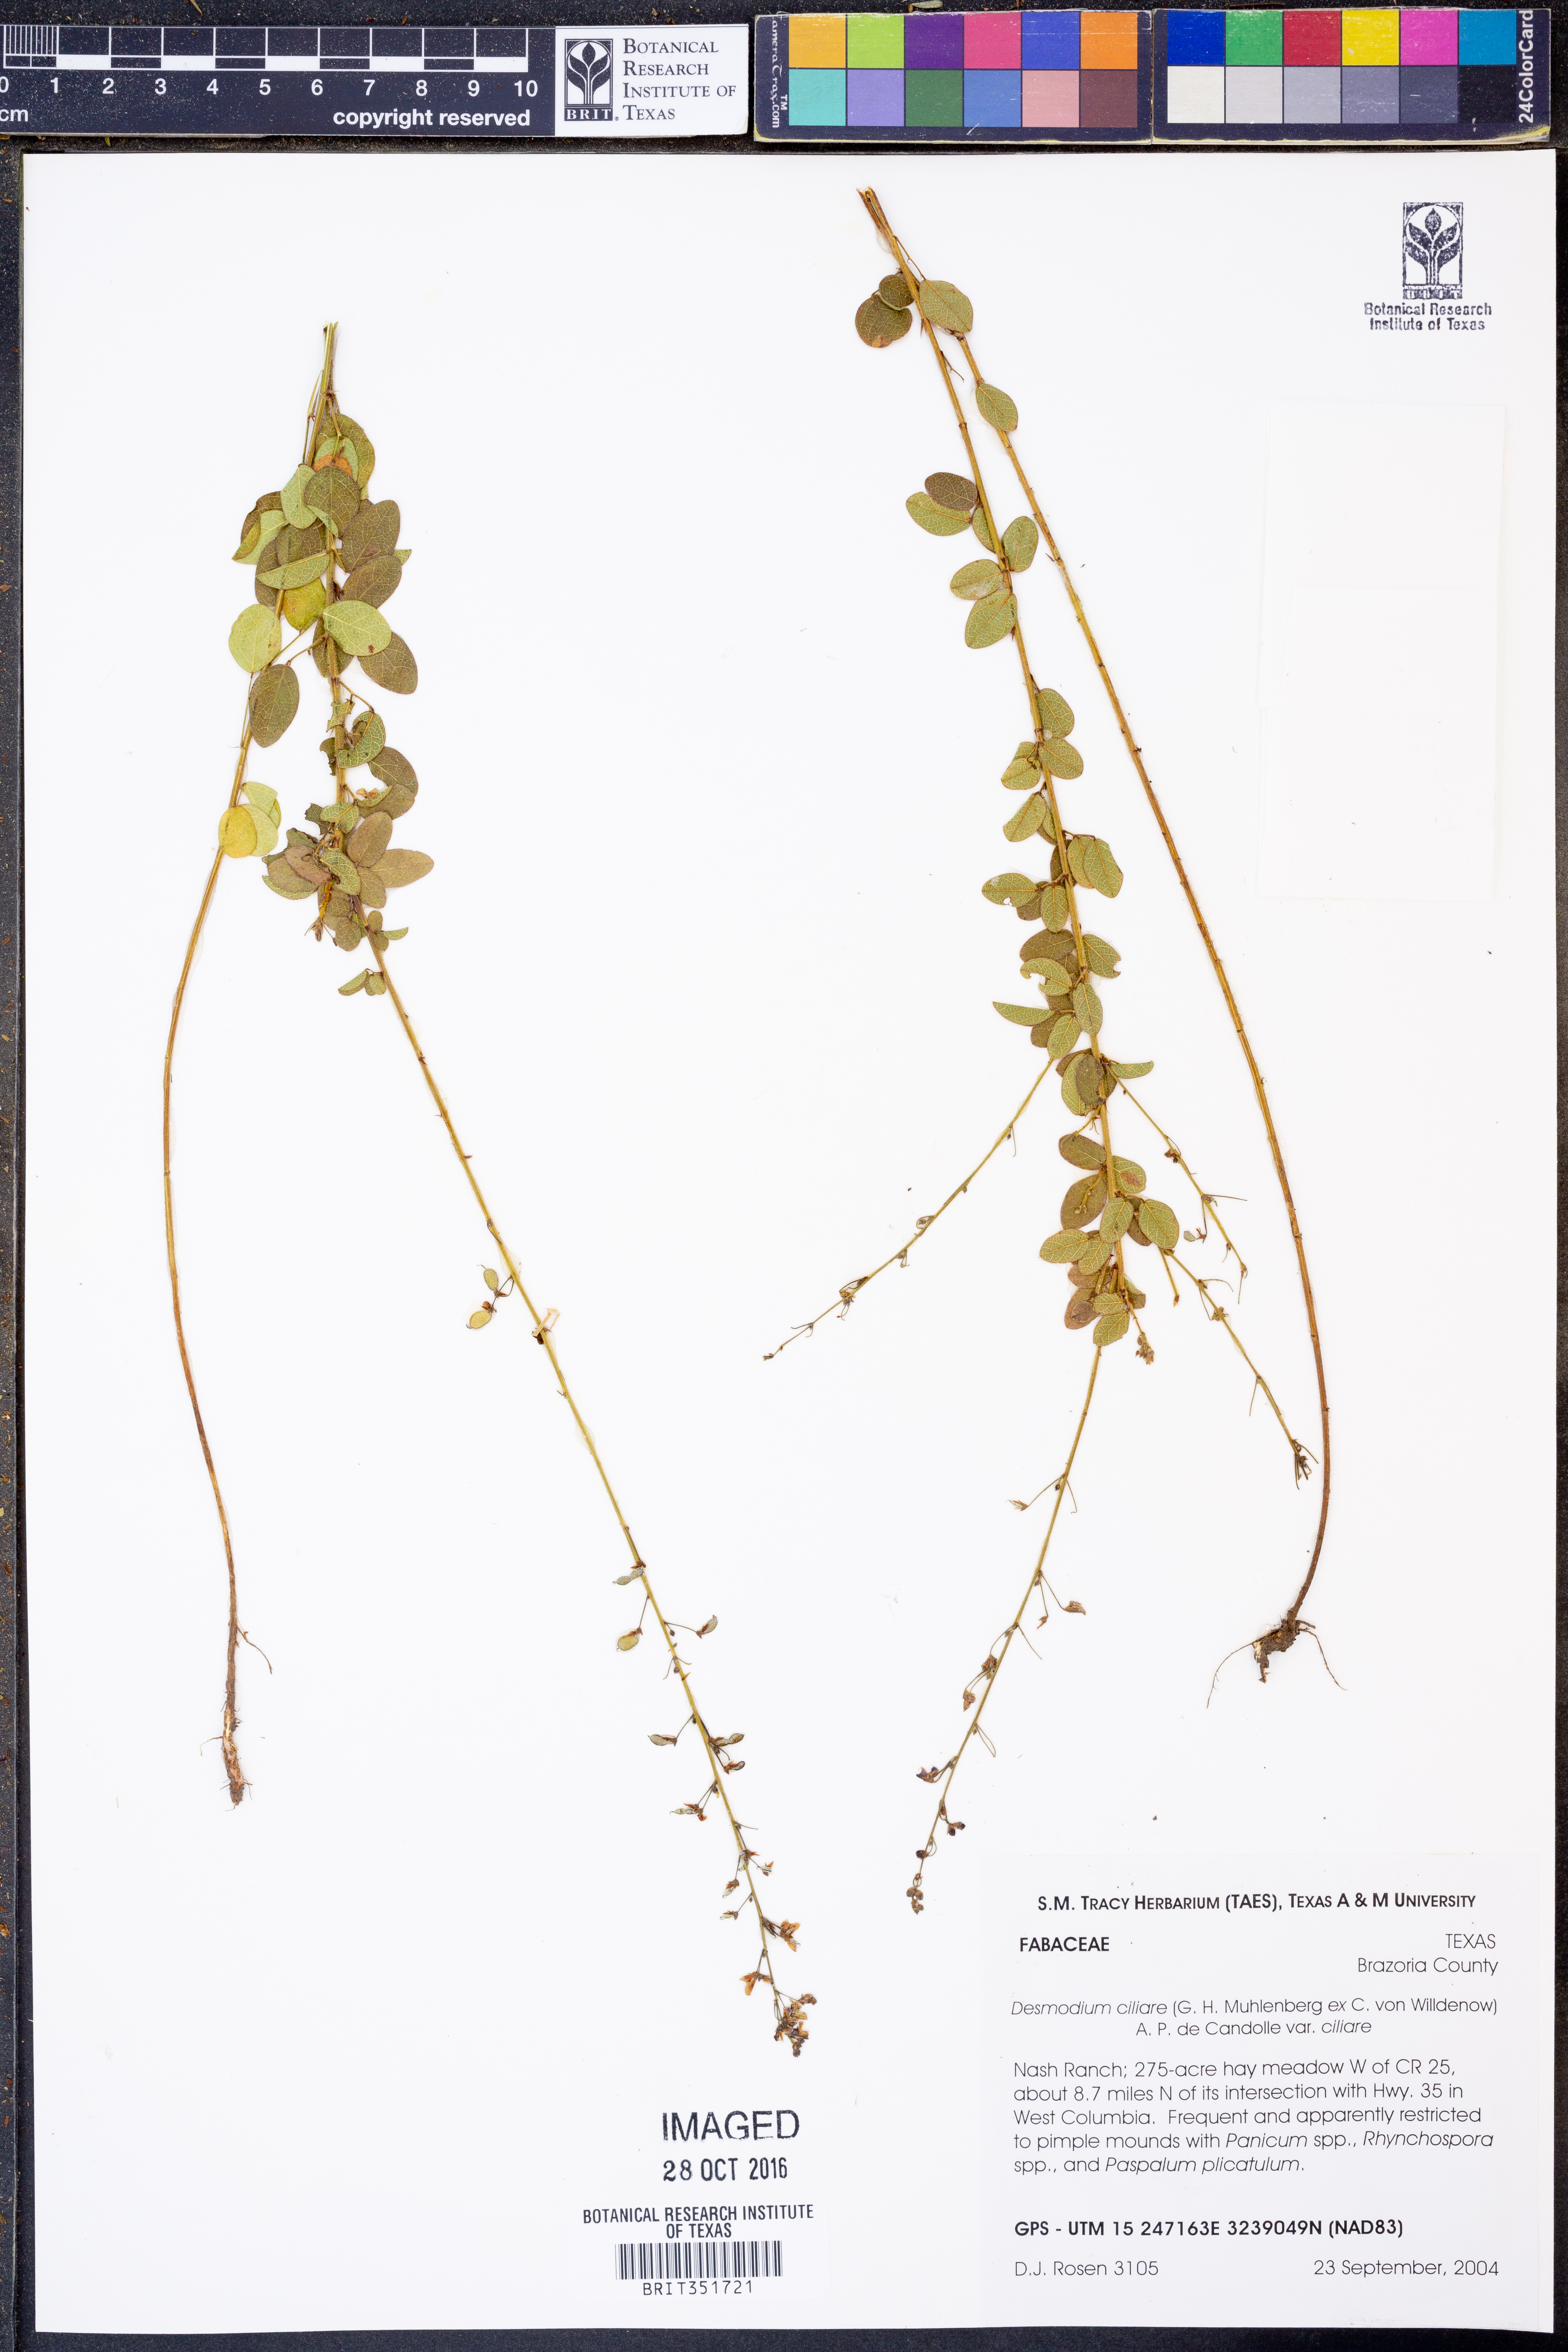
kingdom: Plantae
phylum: Tracheophyta
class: Magnoliopsida
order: Fabales
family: Fabaceae
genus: Desmodium
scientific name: Desmodium ciliare
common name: Hairy small-leaf ticktrefoil
